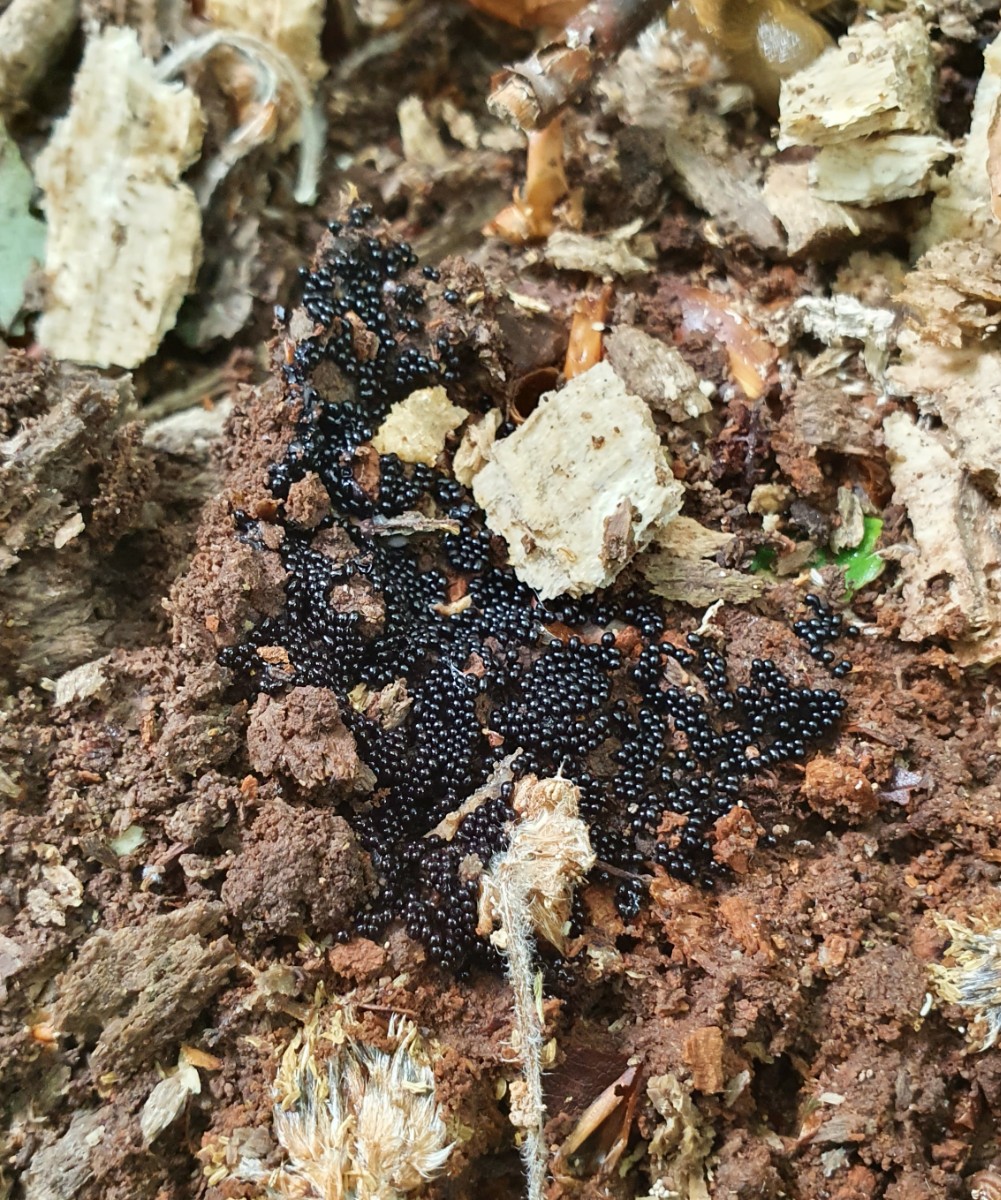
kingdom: Protozoa
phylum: Mycetozoa
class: Myxomycetes
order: Trichiales
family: Trichiaceae
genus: Metatrichia
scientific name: Metatrichia floriformis
